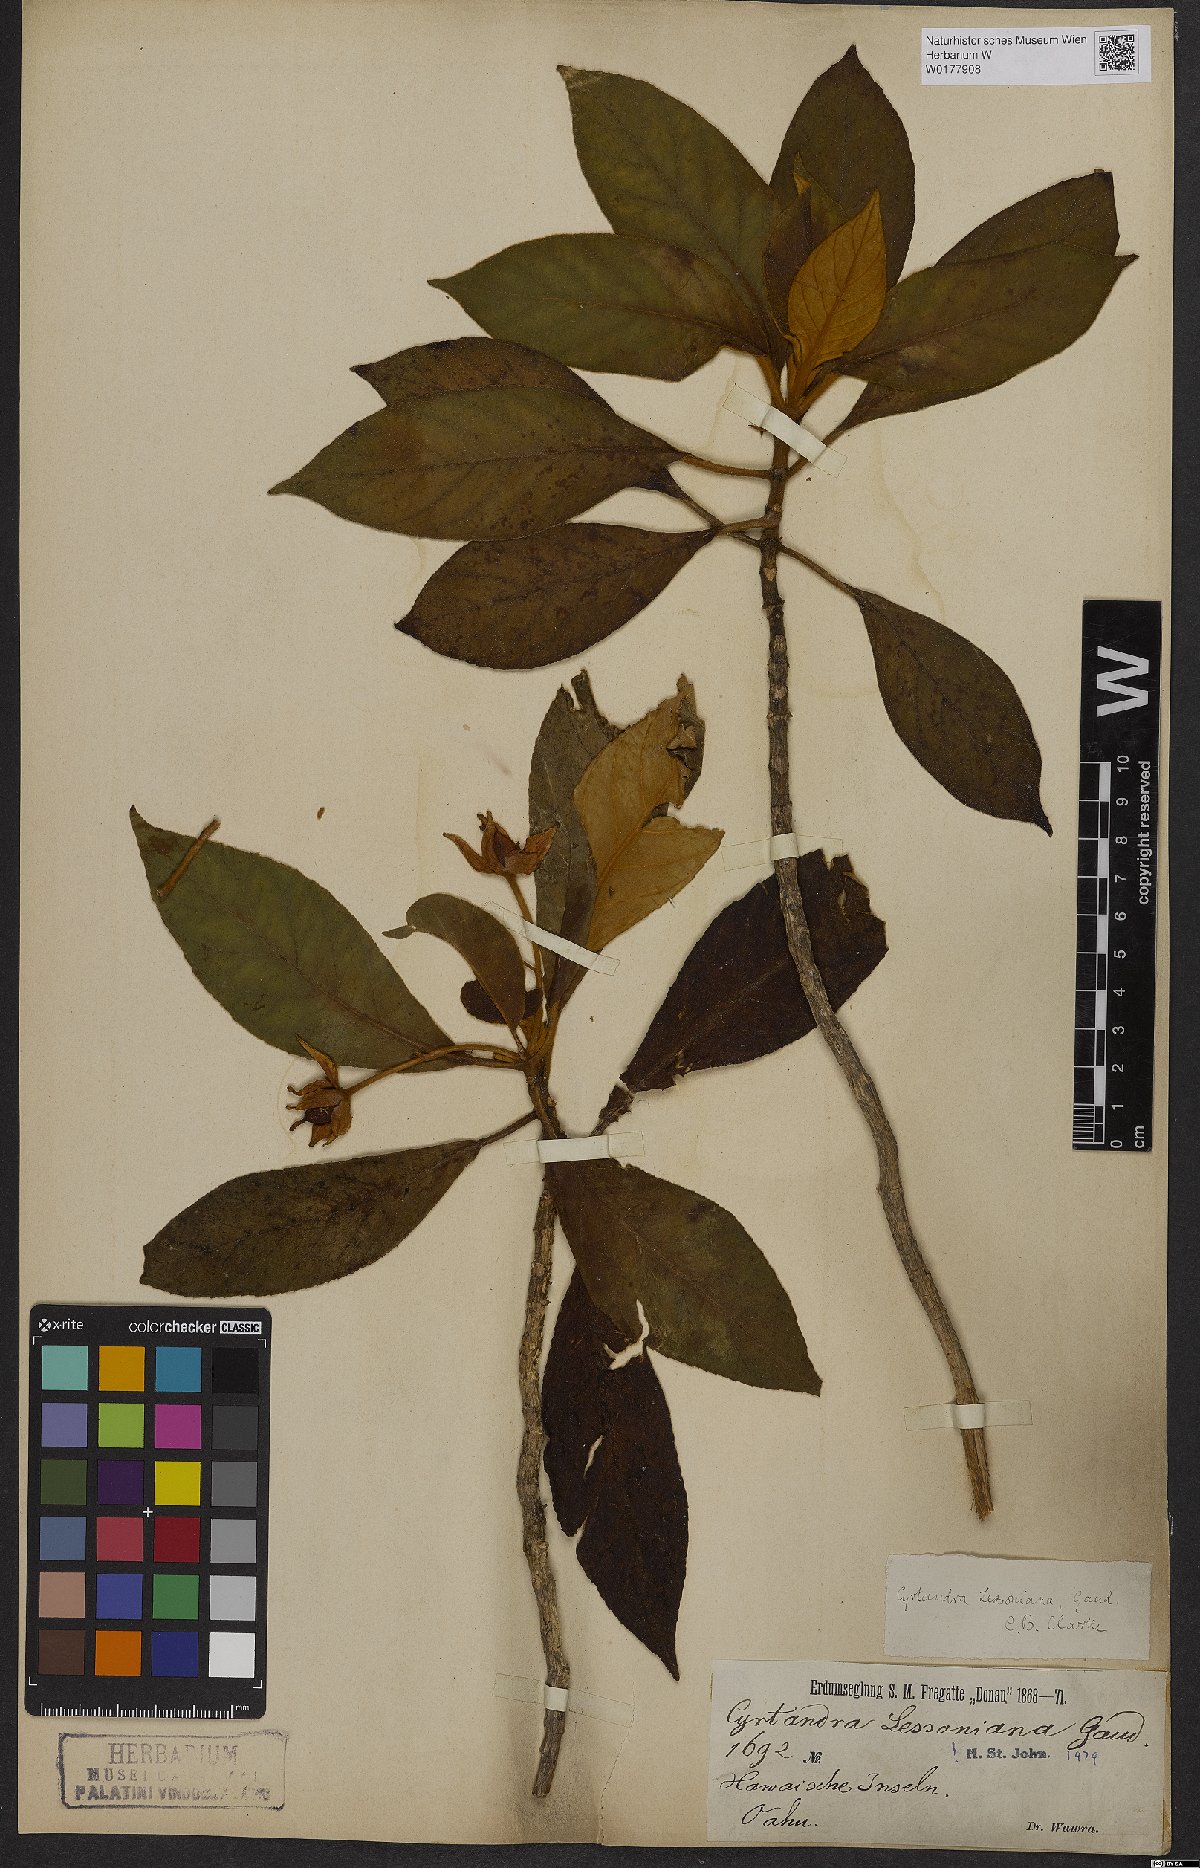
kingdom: Plantae
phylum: Tracheophyta
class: Magnoliopsida
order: Lamiales
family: Gesneriaceae
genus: Cyrtandra
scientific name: Cyrtandra lessoniana
